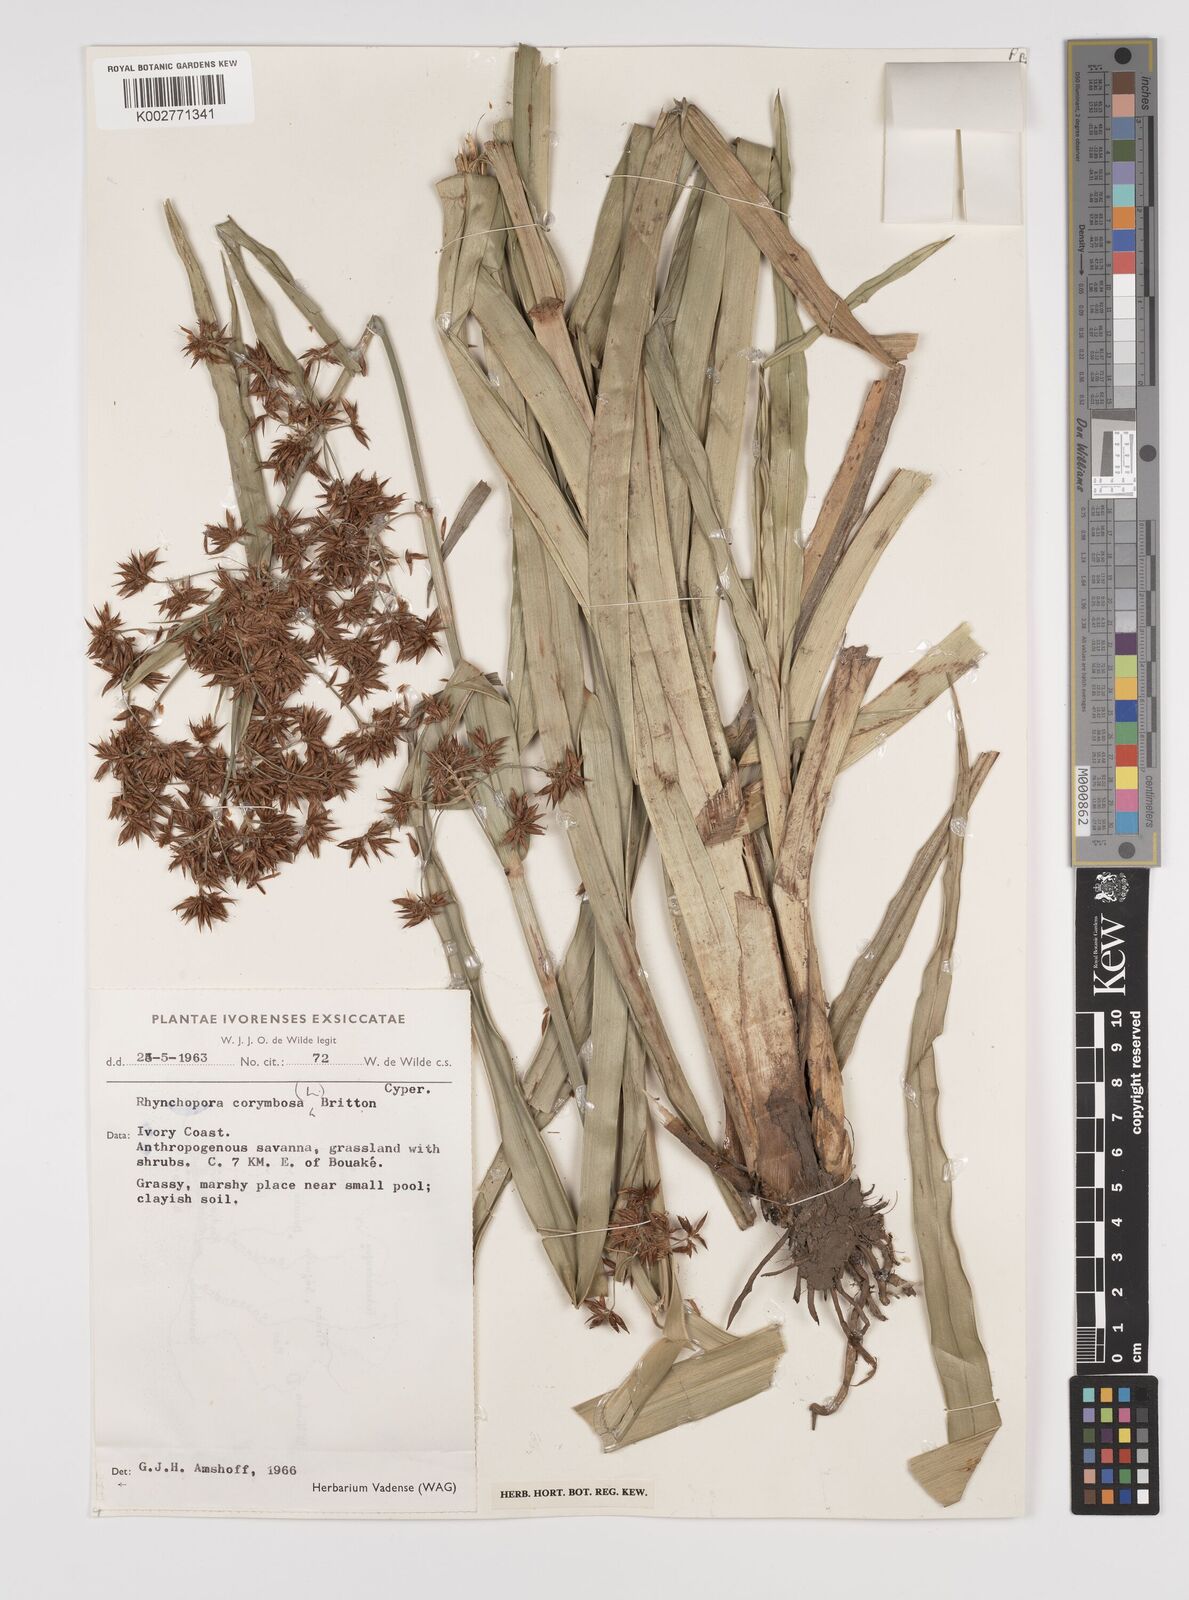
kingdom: Plantae
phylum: Tracheophyta
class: Liliopsida
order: Poales
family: Cyperaceae
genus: Rhynchospora
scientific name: Rhynchospora corymbosa
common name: Golden beak sedge
